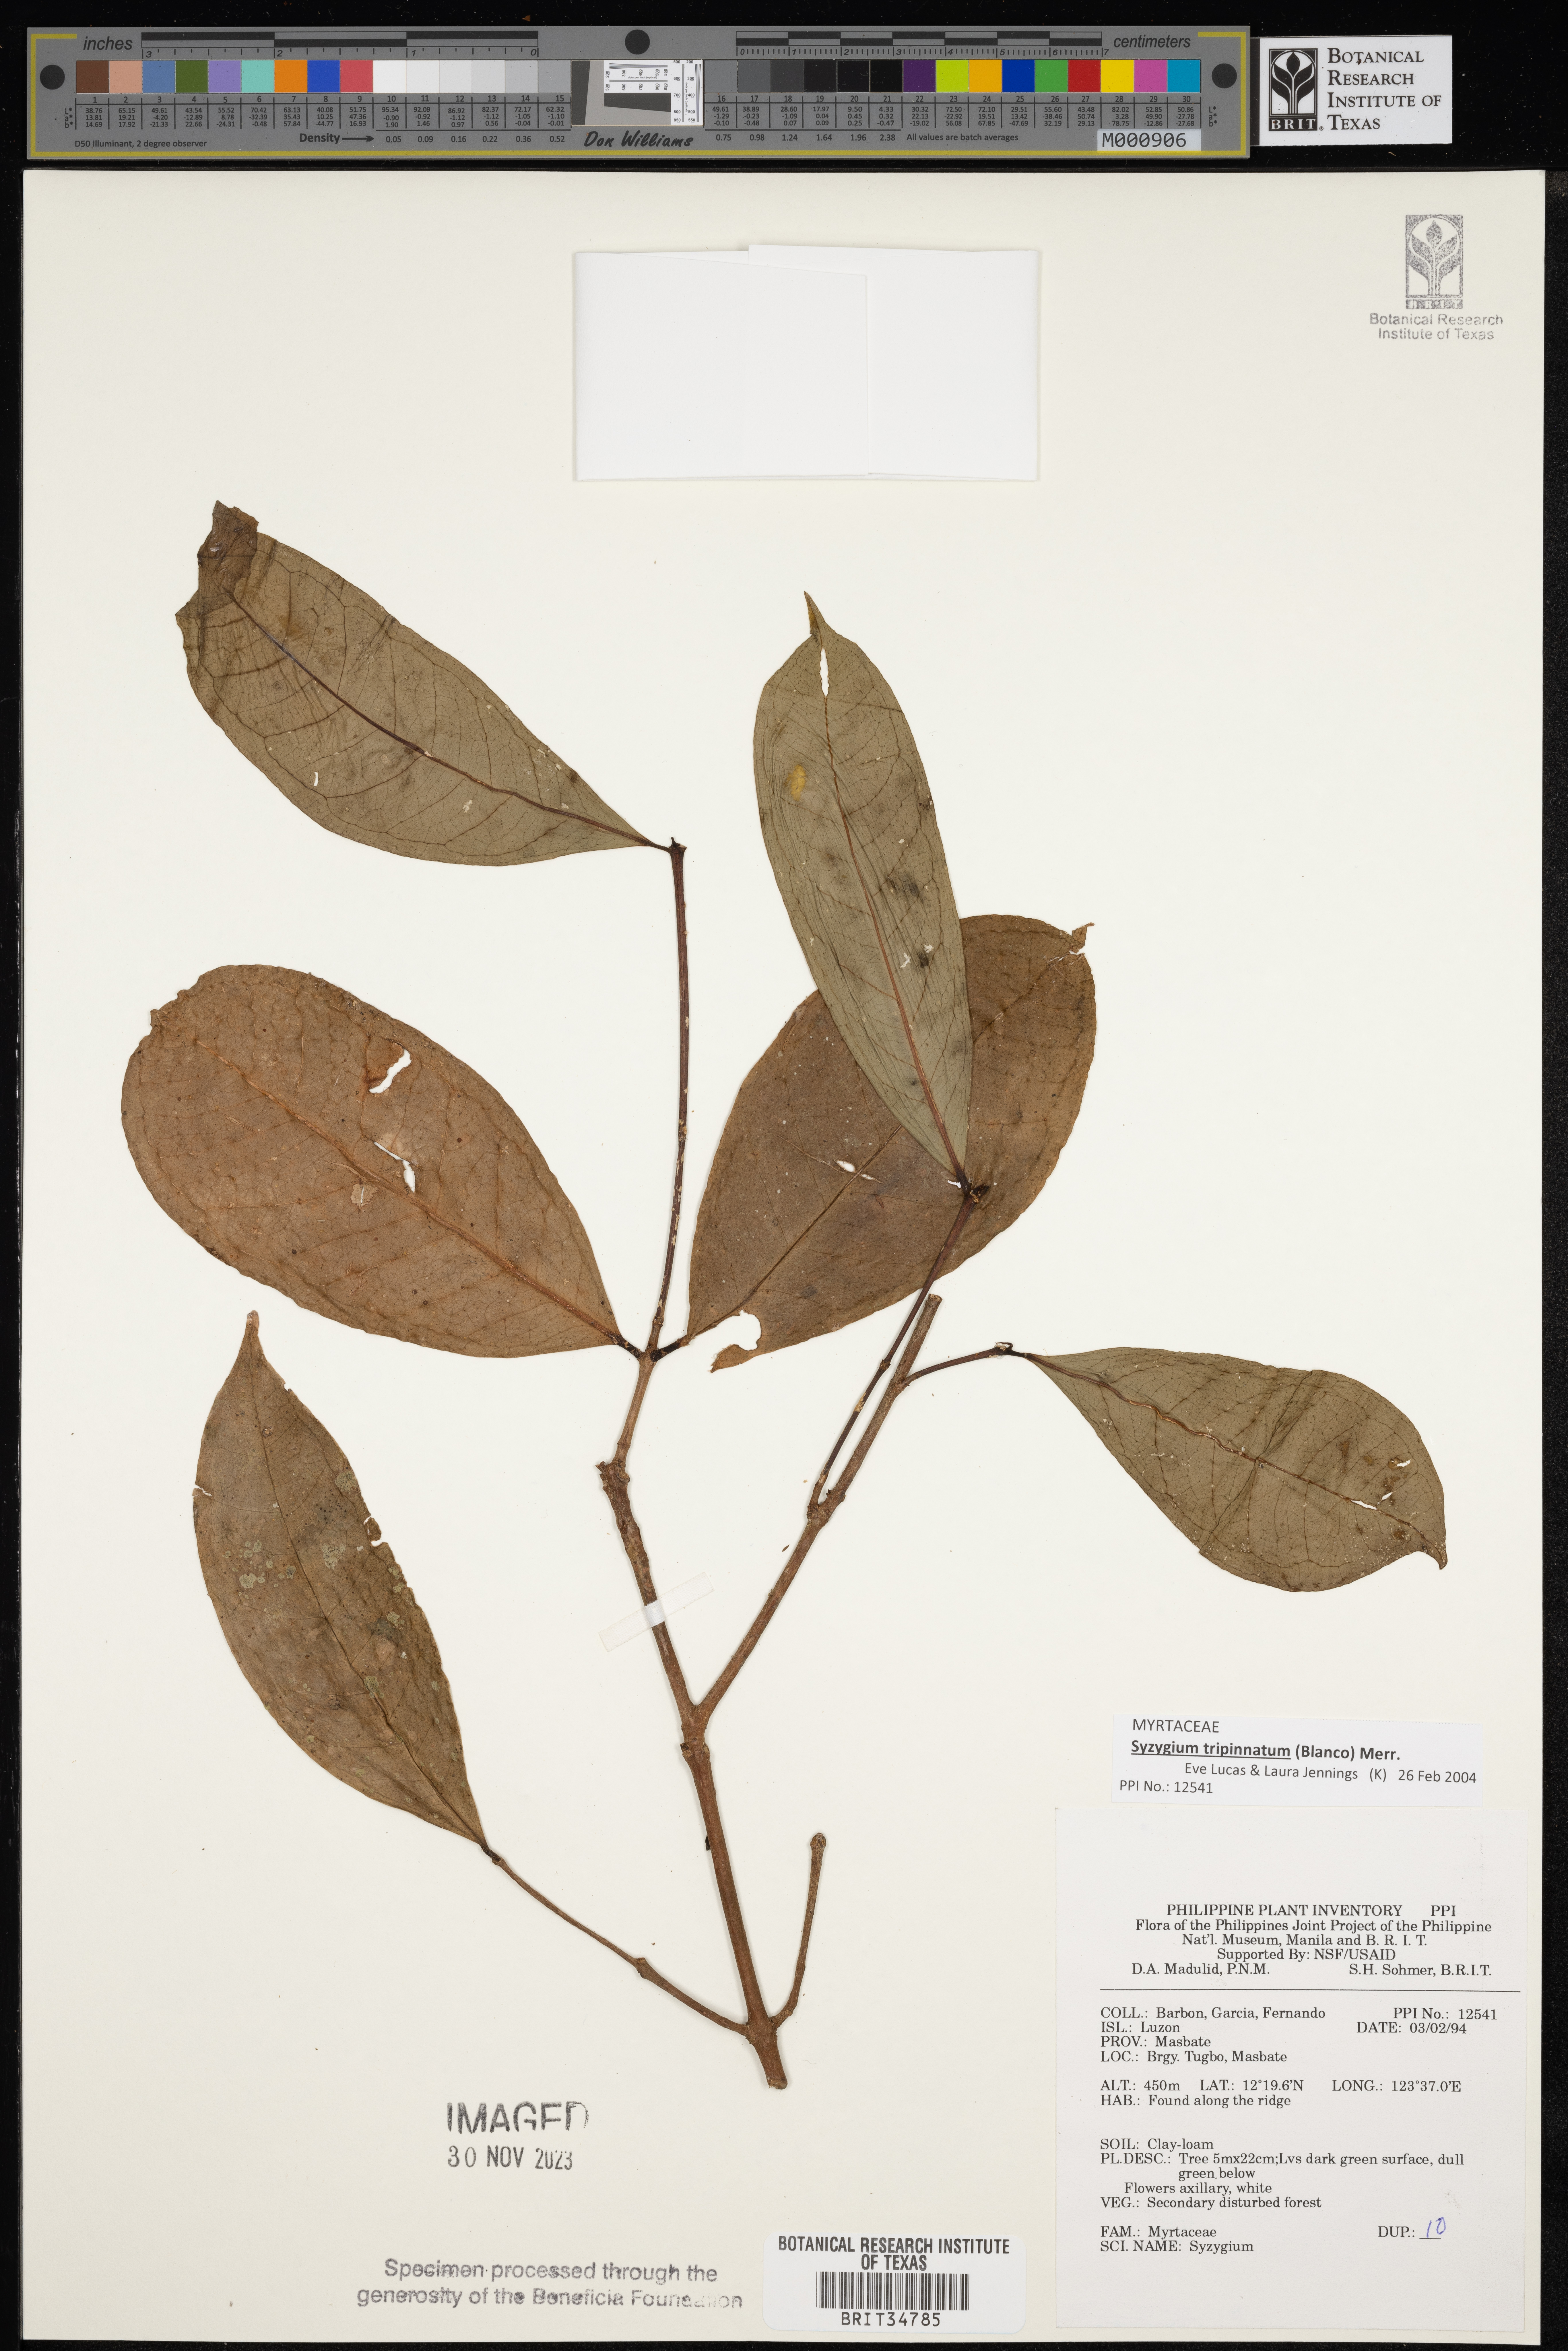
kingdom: Plantae
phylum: Tracheophyta
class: Magnoliopsida
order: Myrtales
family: Myrtaceae
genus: Syzygium
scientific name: Syzygium
